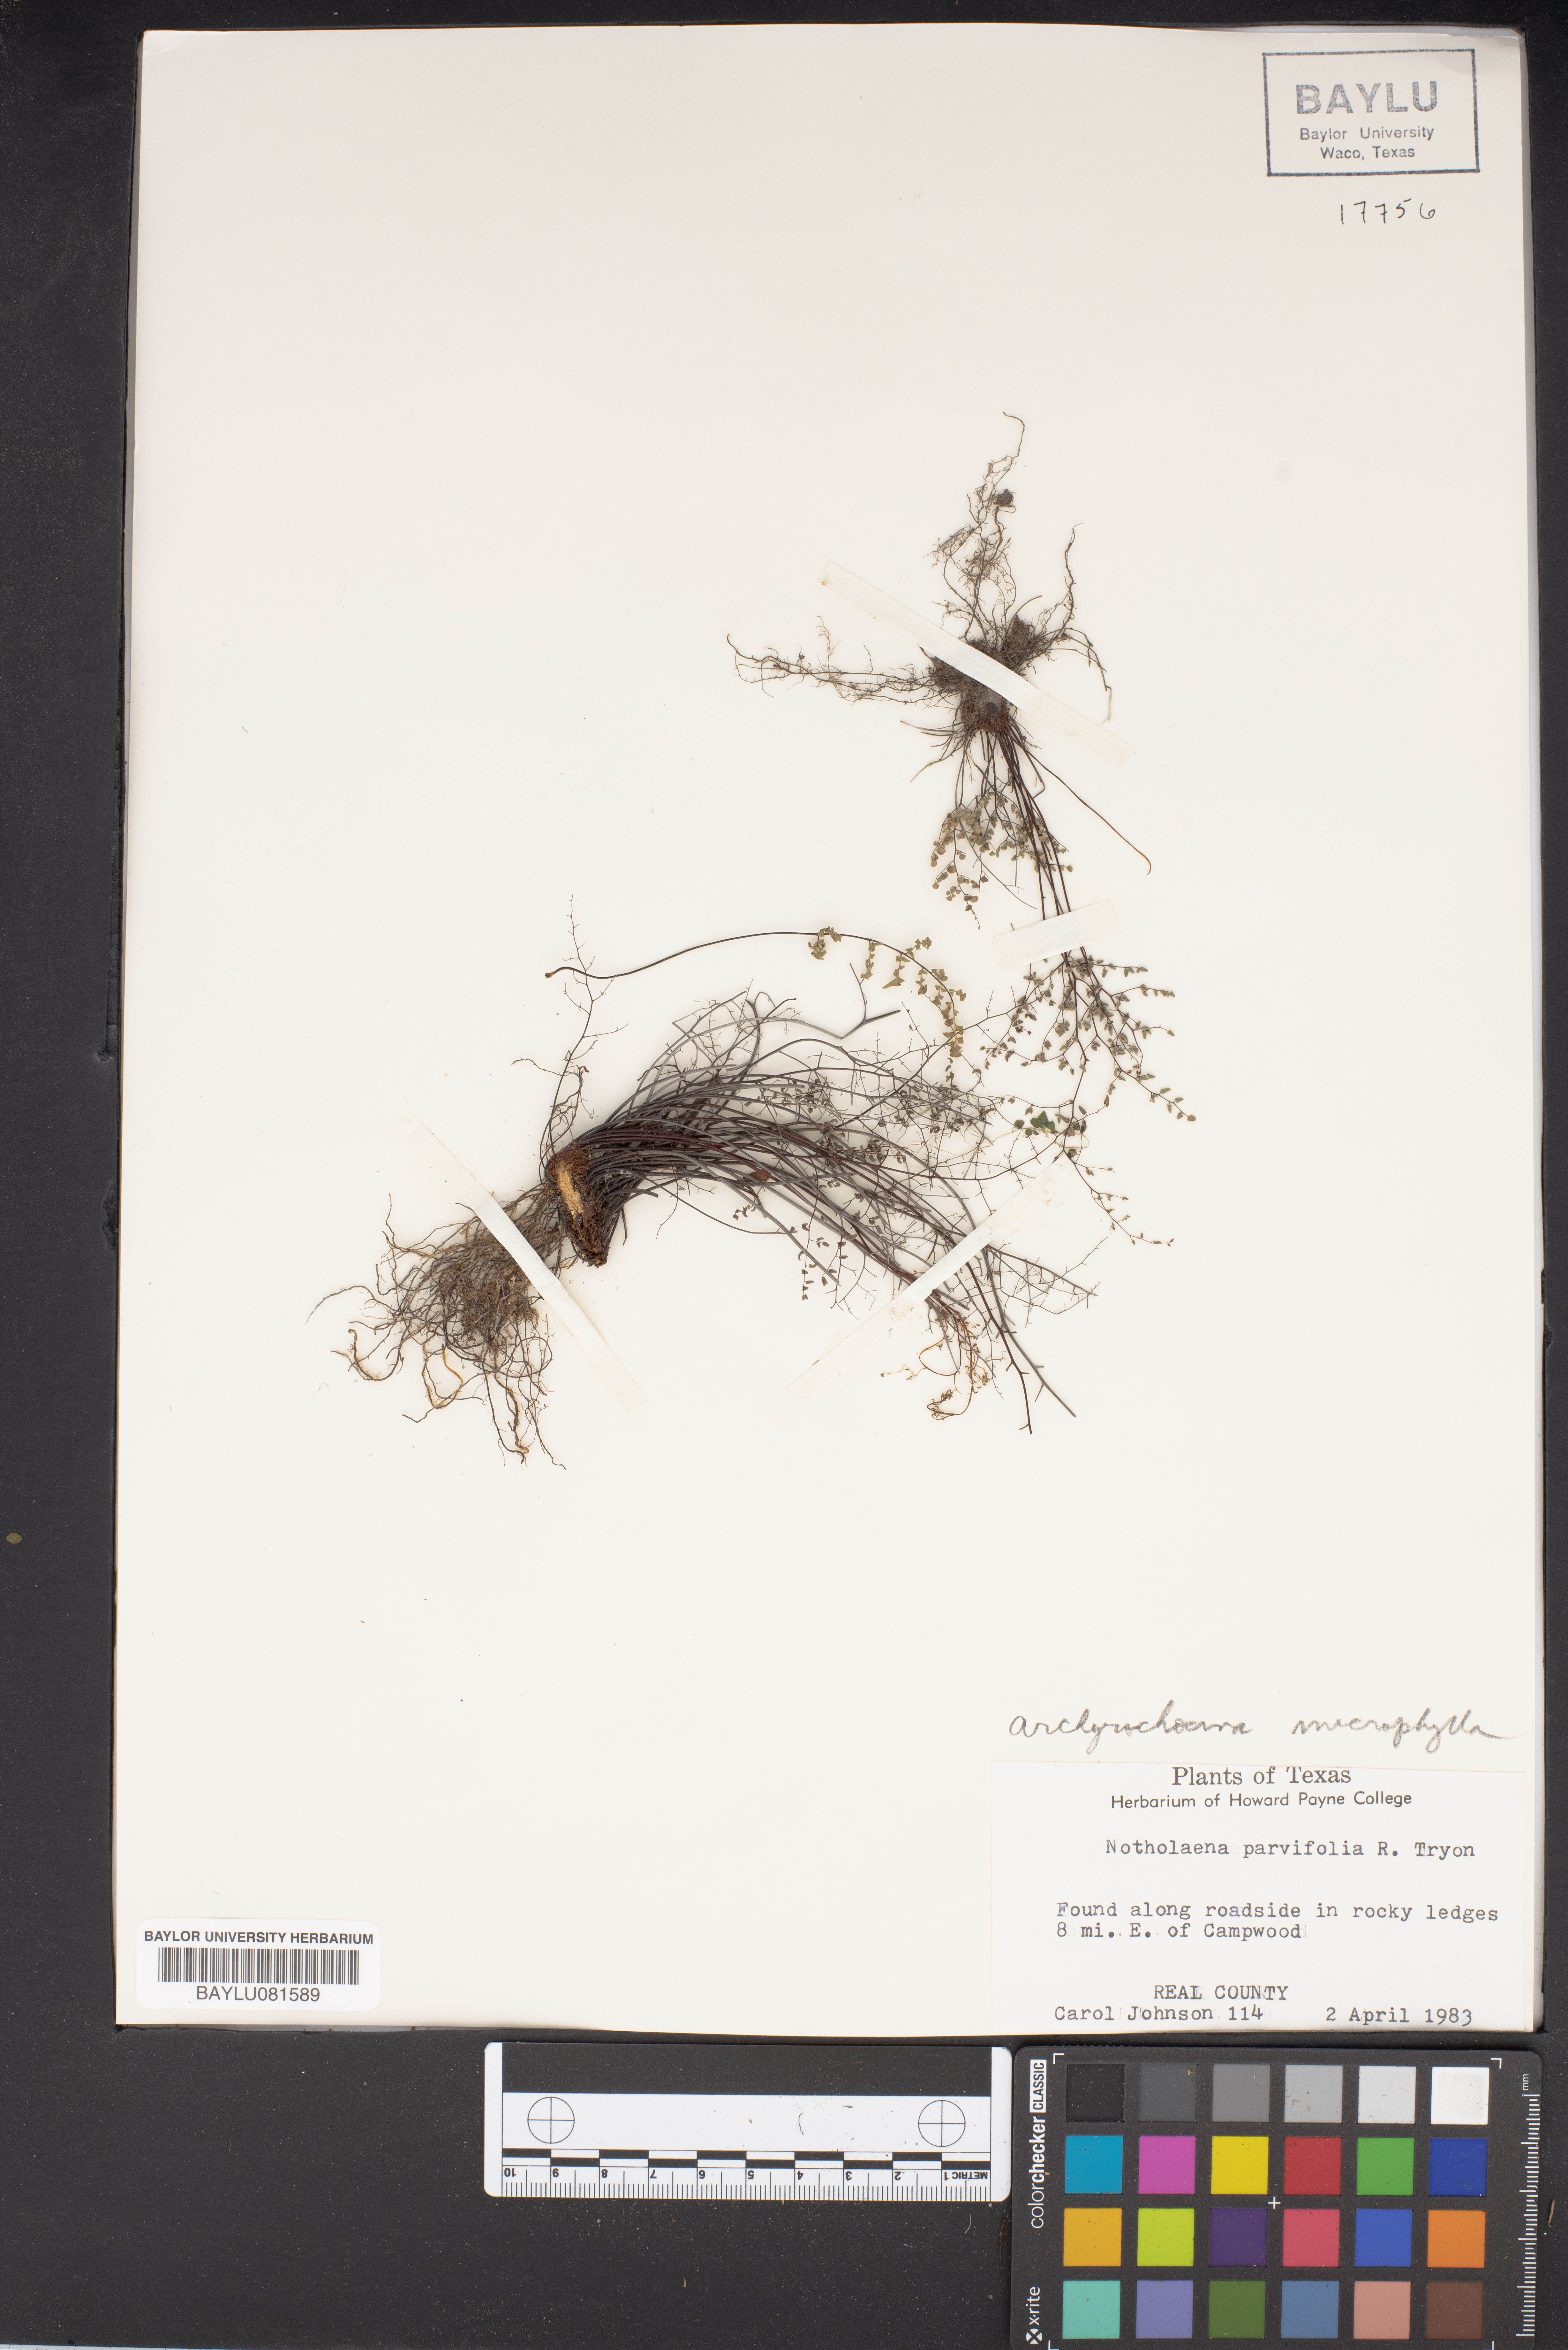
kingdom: Plantae
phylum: Tracheophyta
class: Polypodiopsida
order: Polypodiales
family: Pteridaceae
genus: Argyrochosma
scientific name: Argyrochosma microphylla
